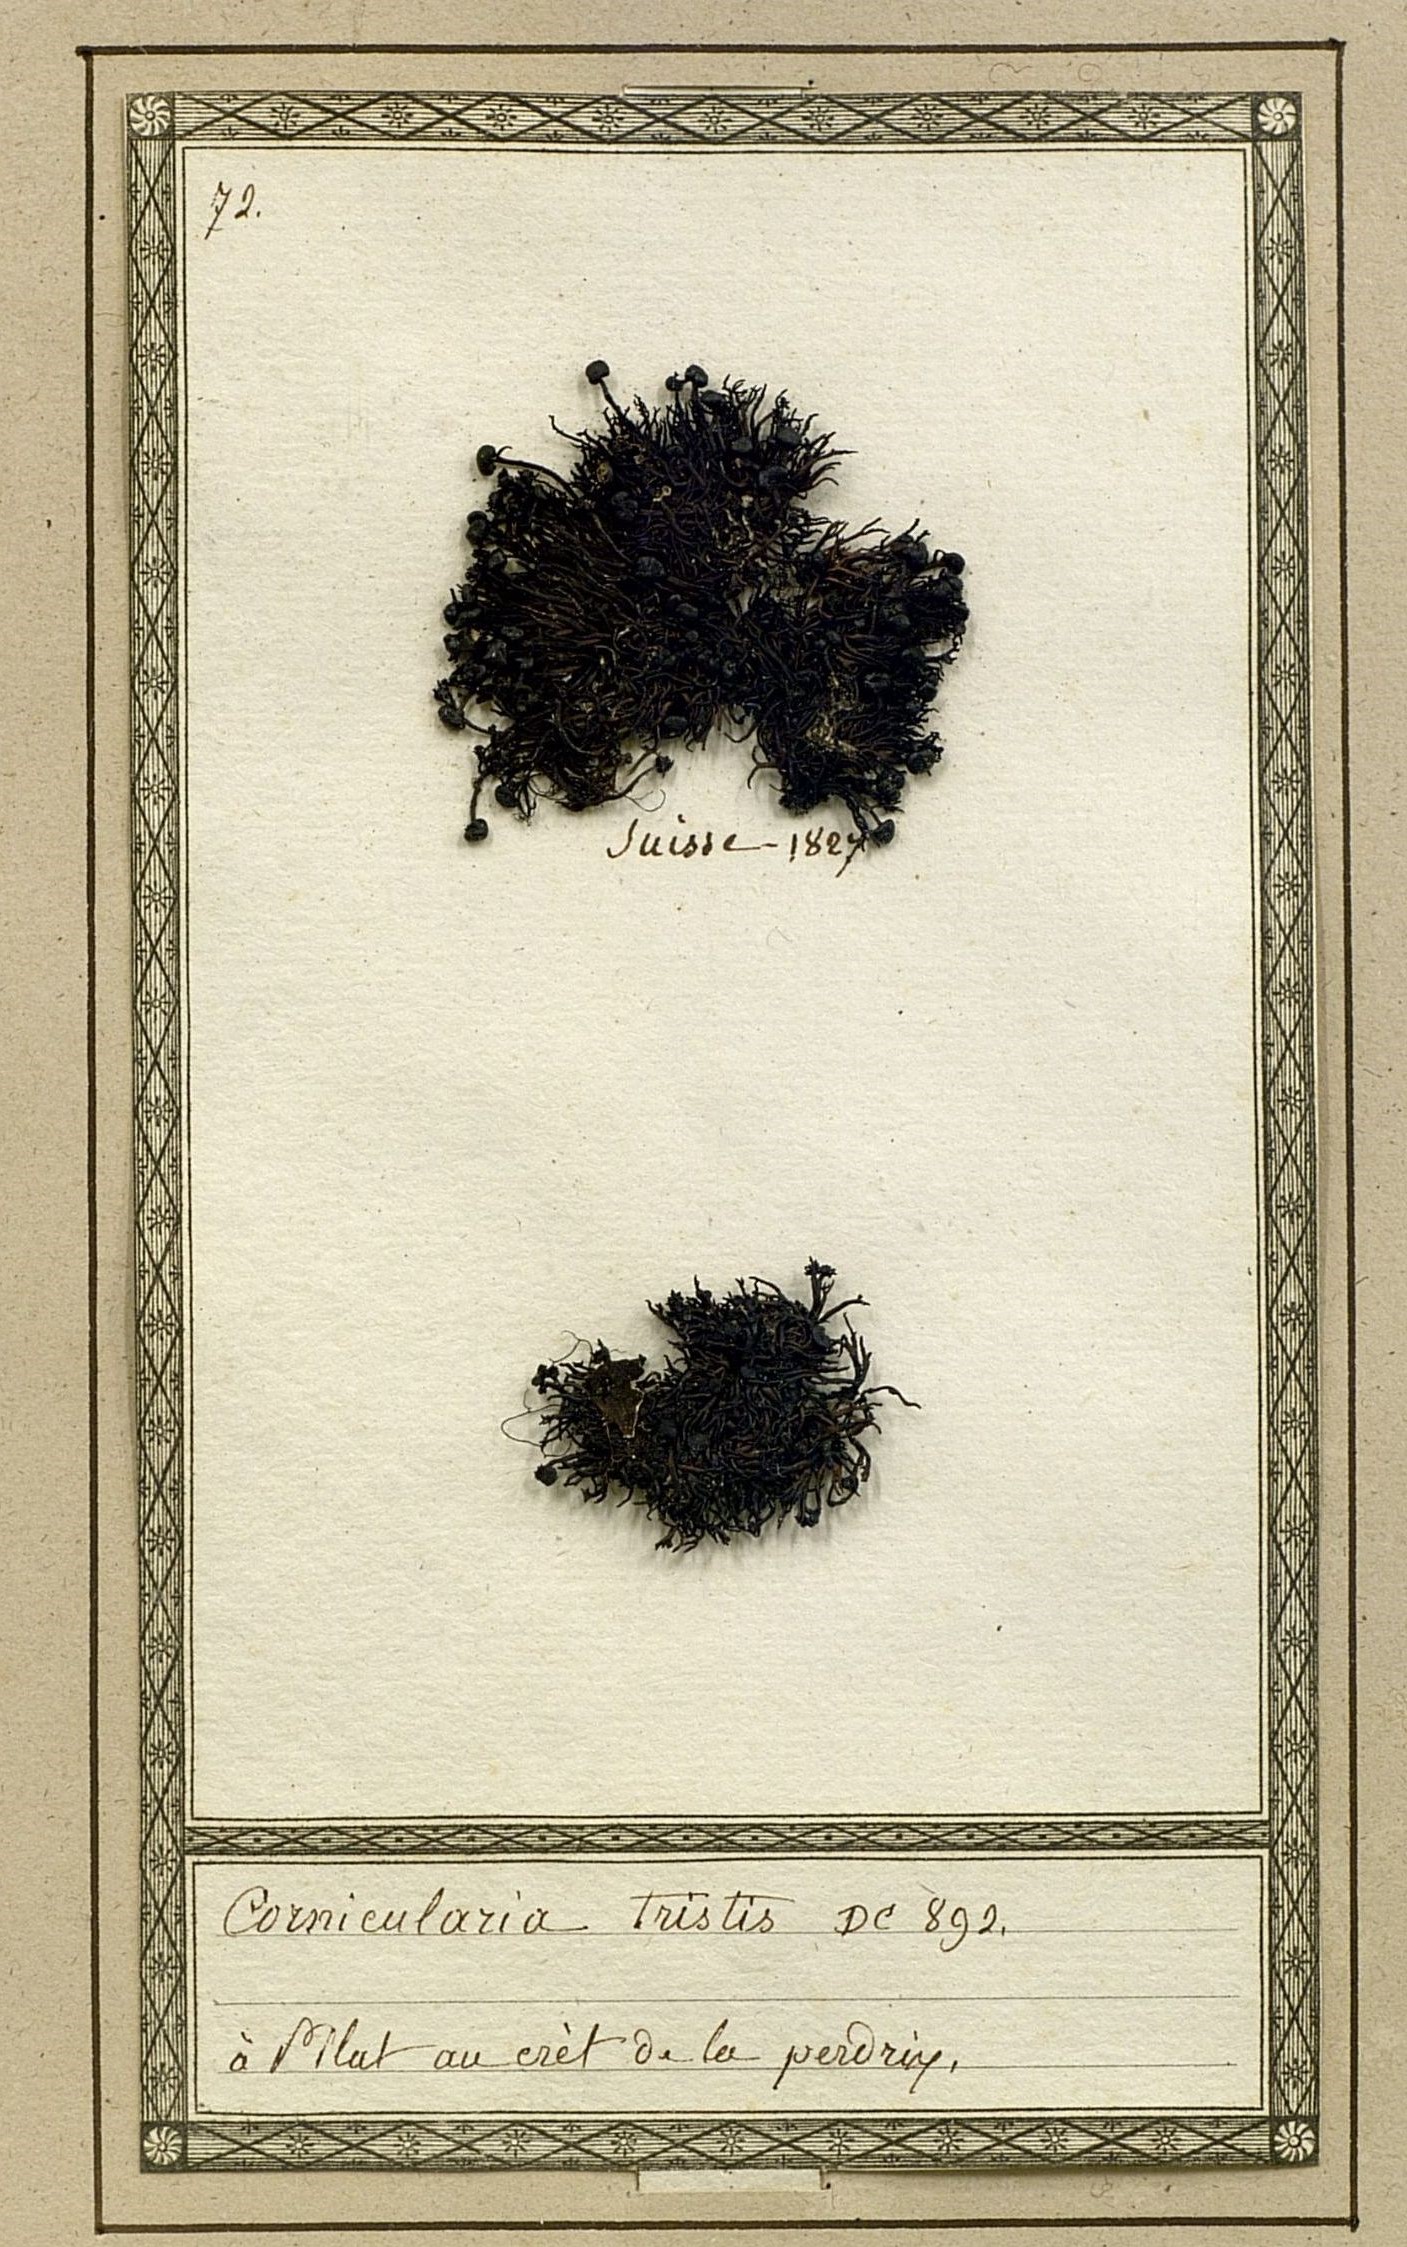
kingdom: Fungi
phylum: Ascomycota
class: Lecanoromycetes
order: Lecanorales
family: Parmeliaceae
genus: Cornicularia
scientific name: Cornicularia normoerica
